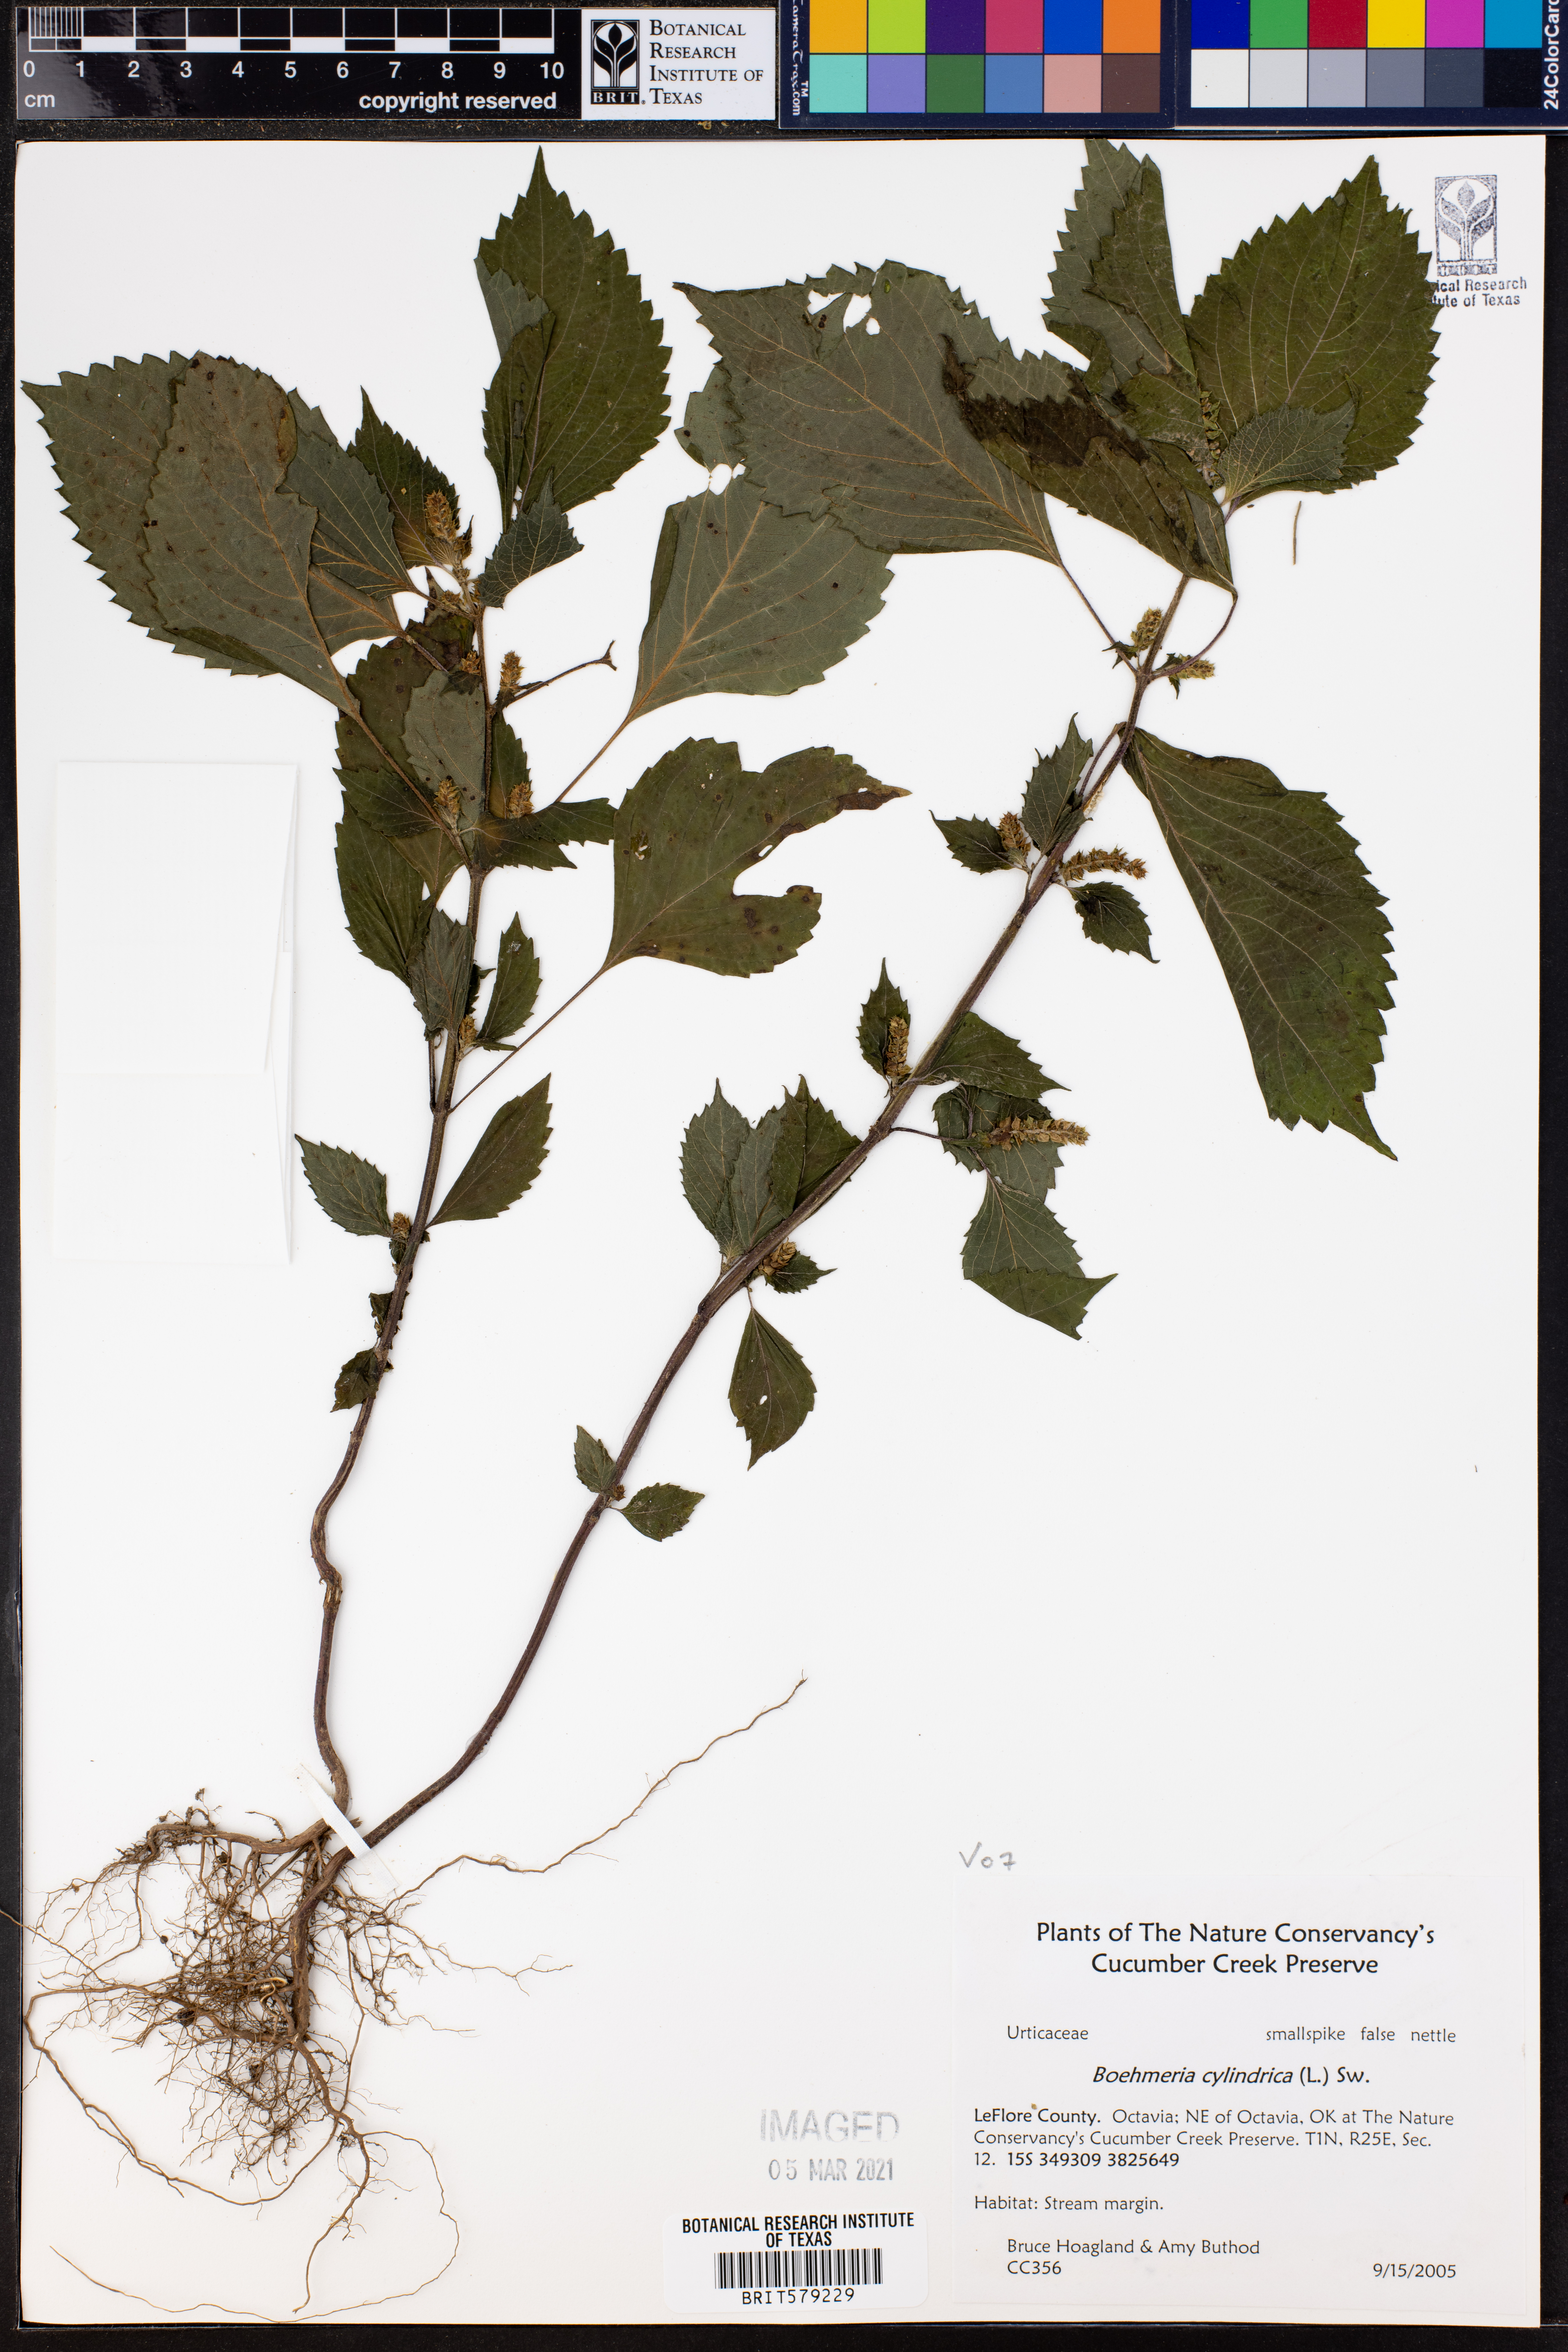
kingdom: Plantae
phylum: Tracheophyta
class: Magnoliopsida
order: Rosales
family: Urticaceae
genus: Boehmeria
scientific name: Boehmeria cylindrica
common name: Bog-hemp
